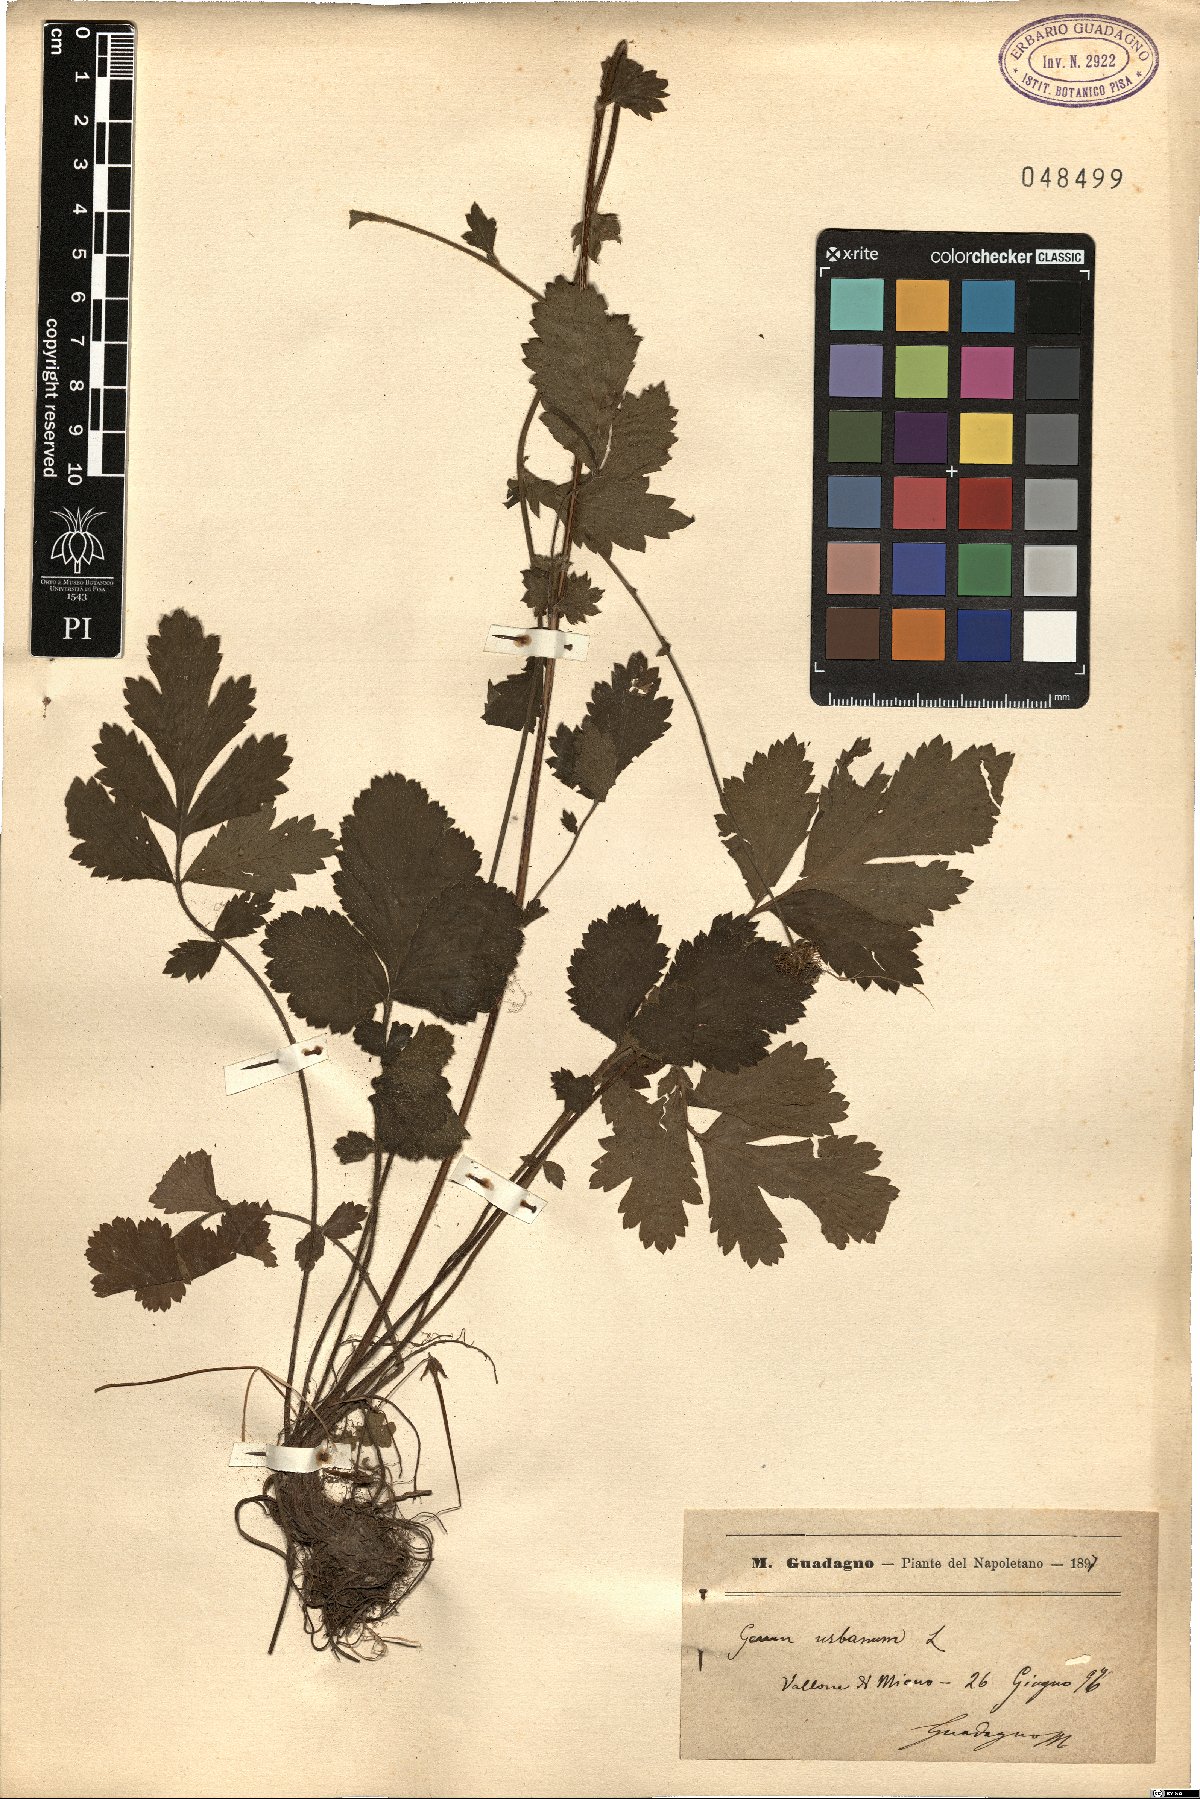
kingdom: Plantae
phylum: Tracheophyta
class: Magnoliopsida
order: Rosales
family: Rosaceae
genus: Geum
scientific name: Geum urbanum
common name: Wood avens
